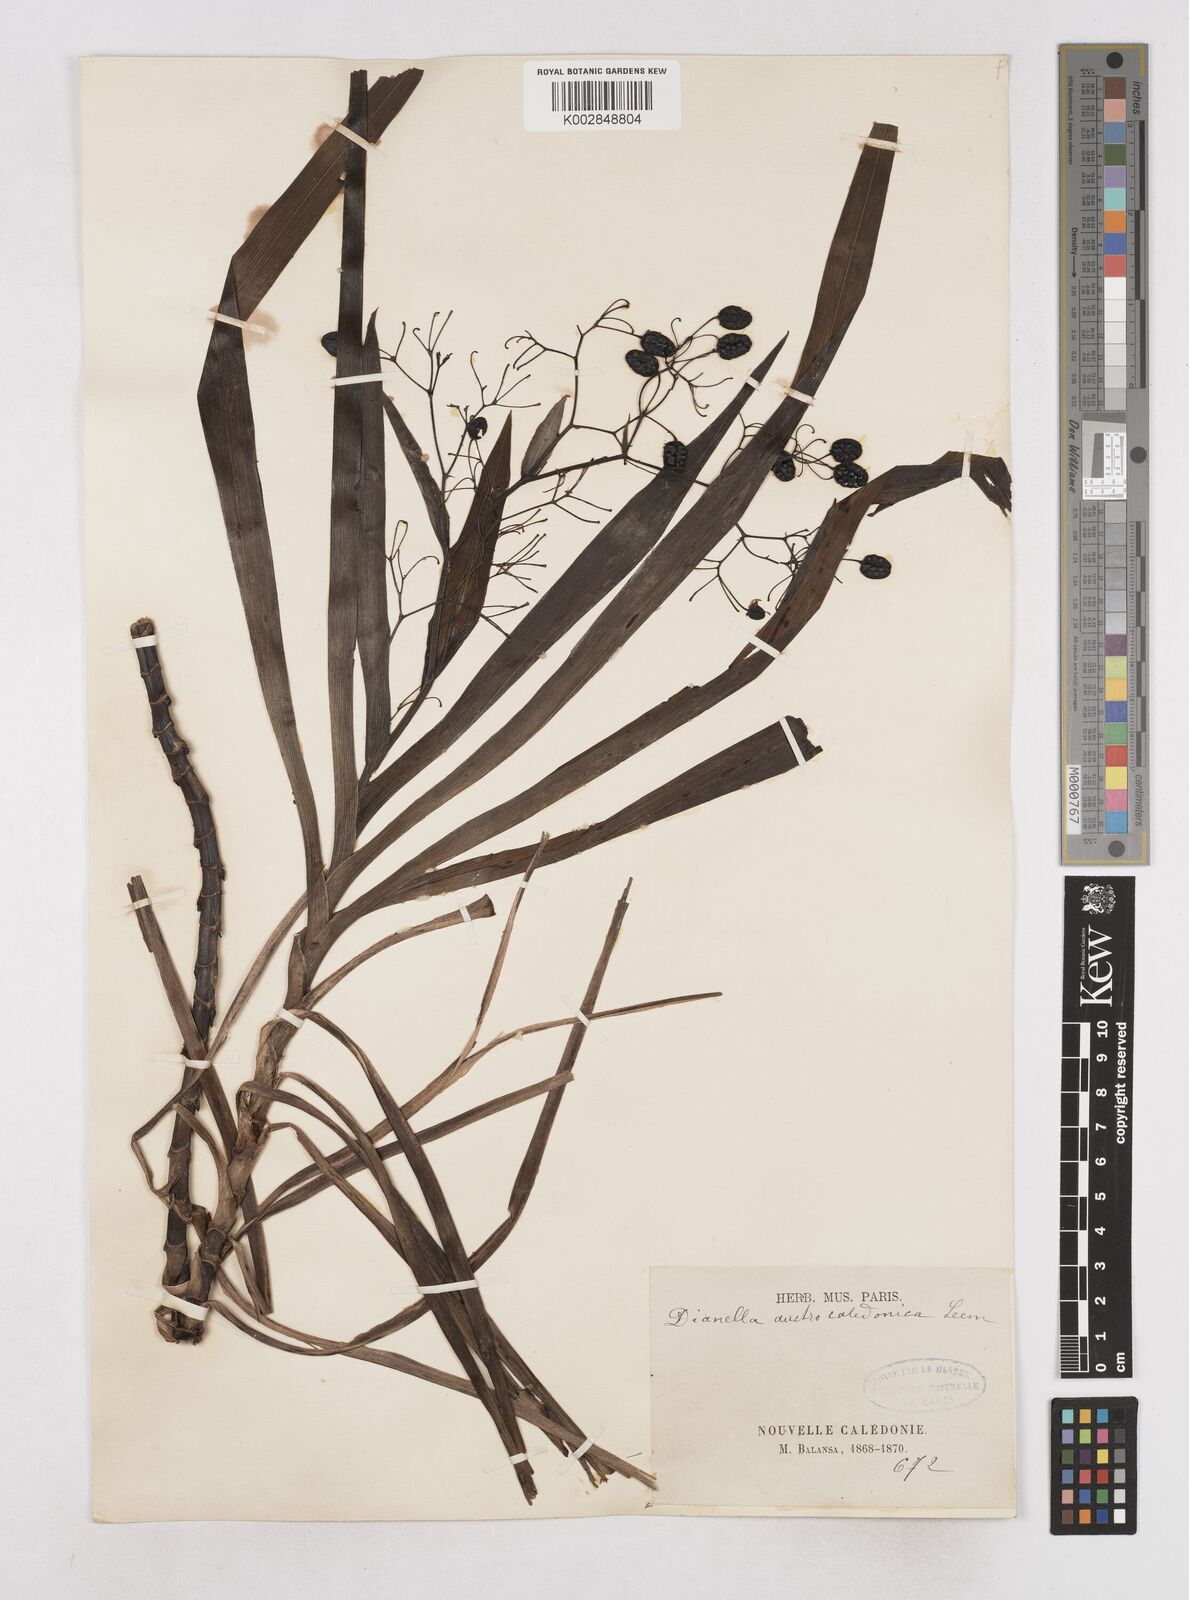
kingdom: Plantae
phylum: Tracheophyta
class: Liliopsida
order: Asparagales
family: Asphodelaceae
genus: Rhuacophila
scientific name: Rhuacophila javanica
